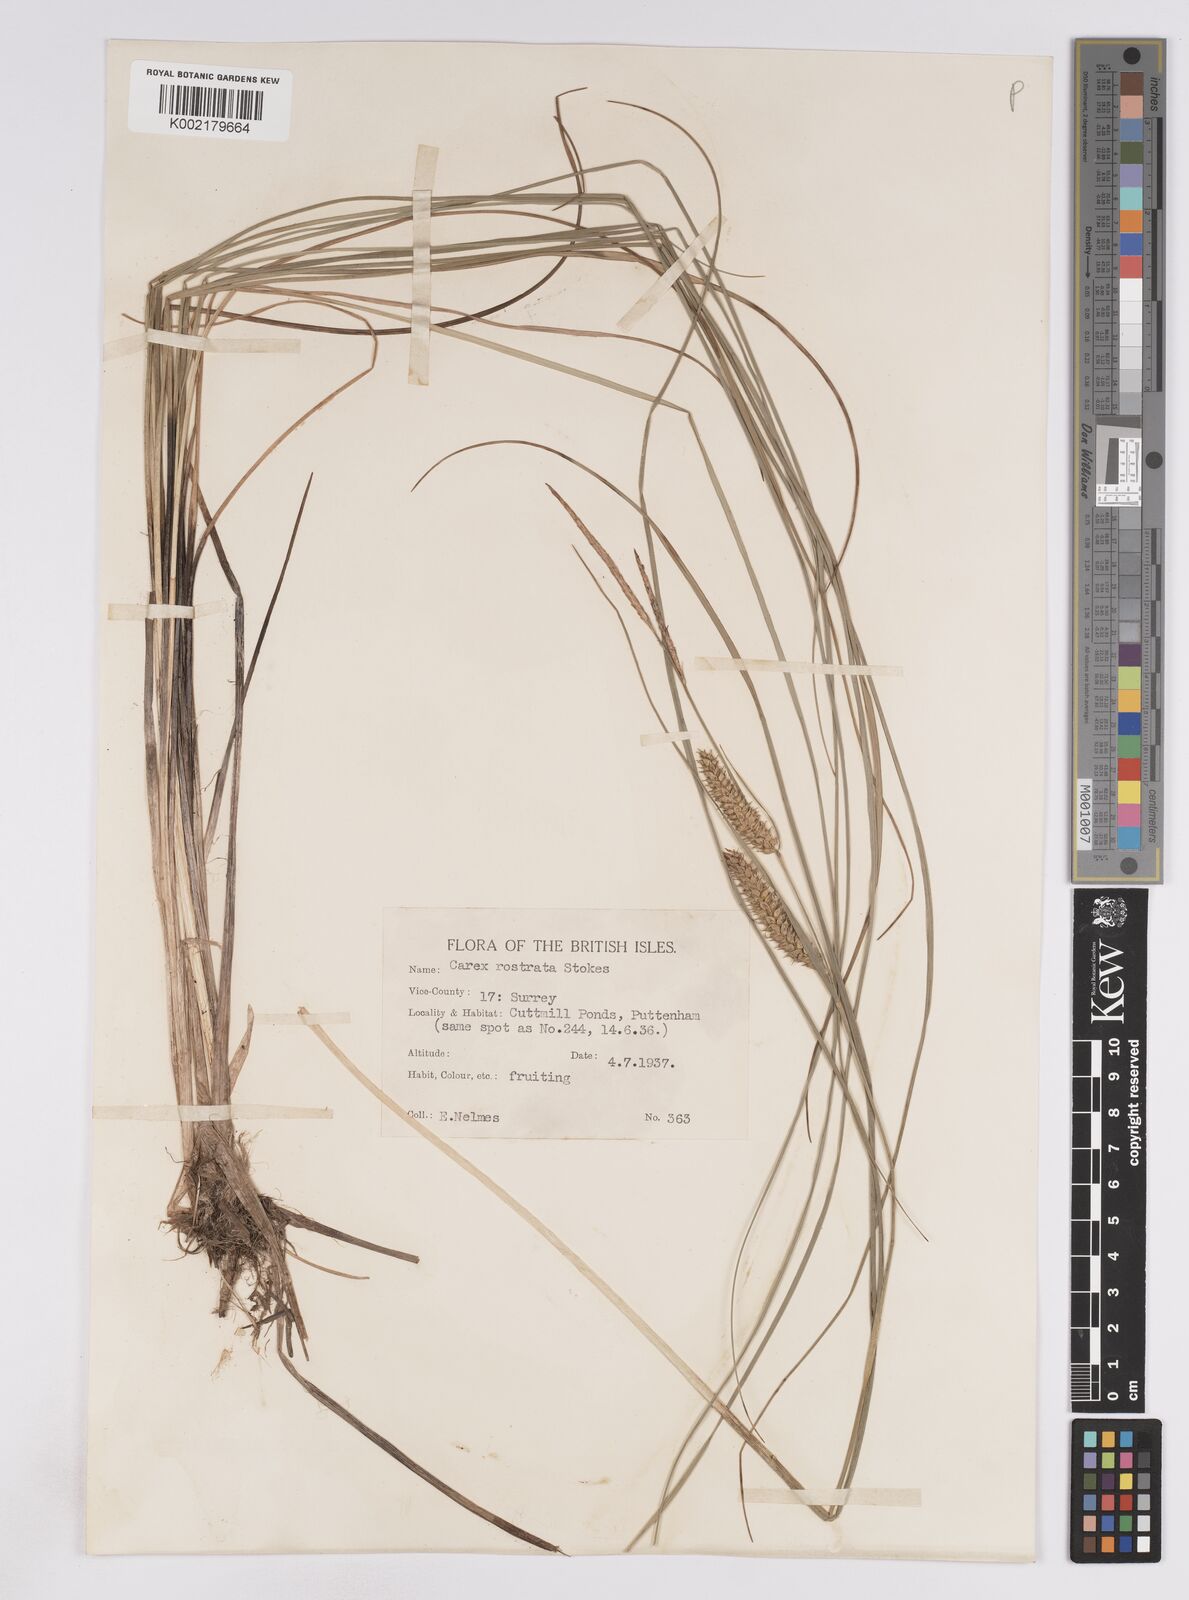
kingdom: Plantae
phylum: Tracheophyta
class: Liliopsida
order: Poales
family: Cyperaceae
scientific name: Cyperaceae
